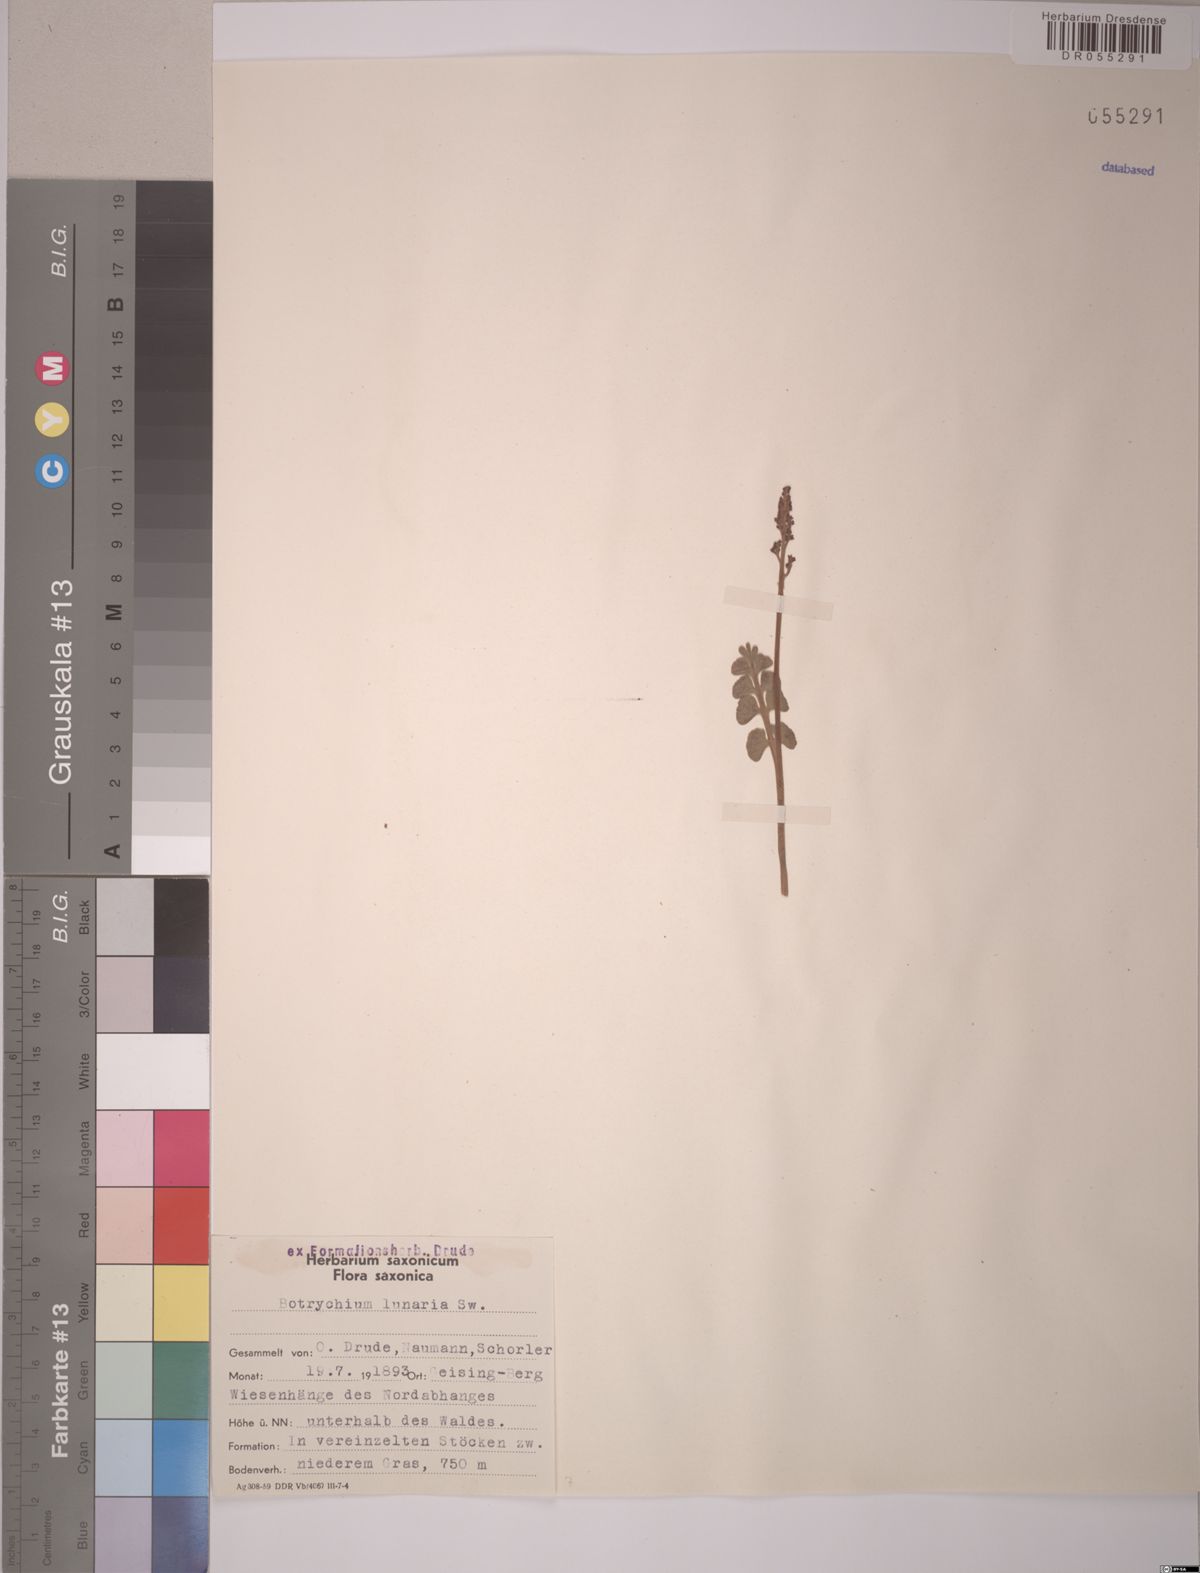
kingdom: Plantae
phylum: Tracheophyta
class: Polypodiopsida
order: Ophioglossales
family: Ophioglossaceae
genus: Botrychium
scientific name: Botrychium lunaria
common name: Moonwort
